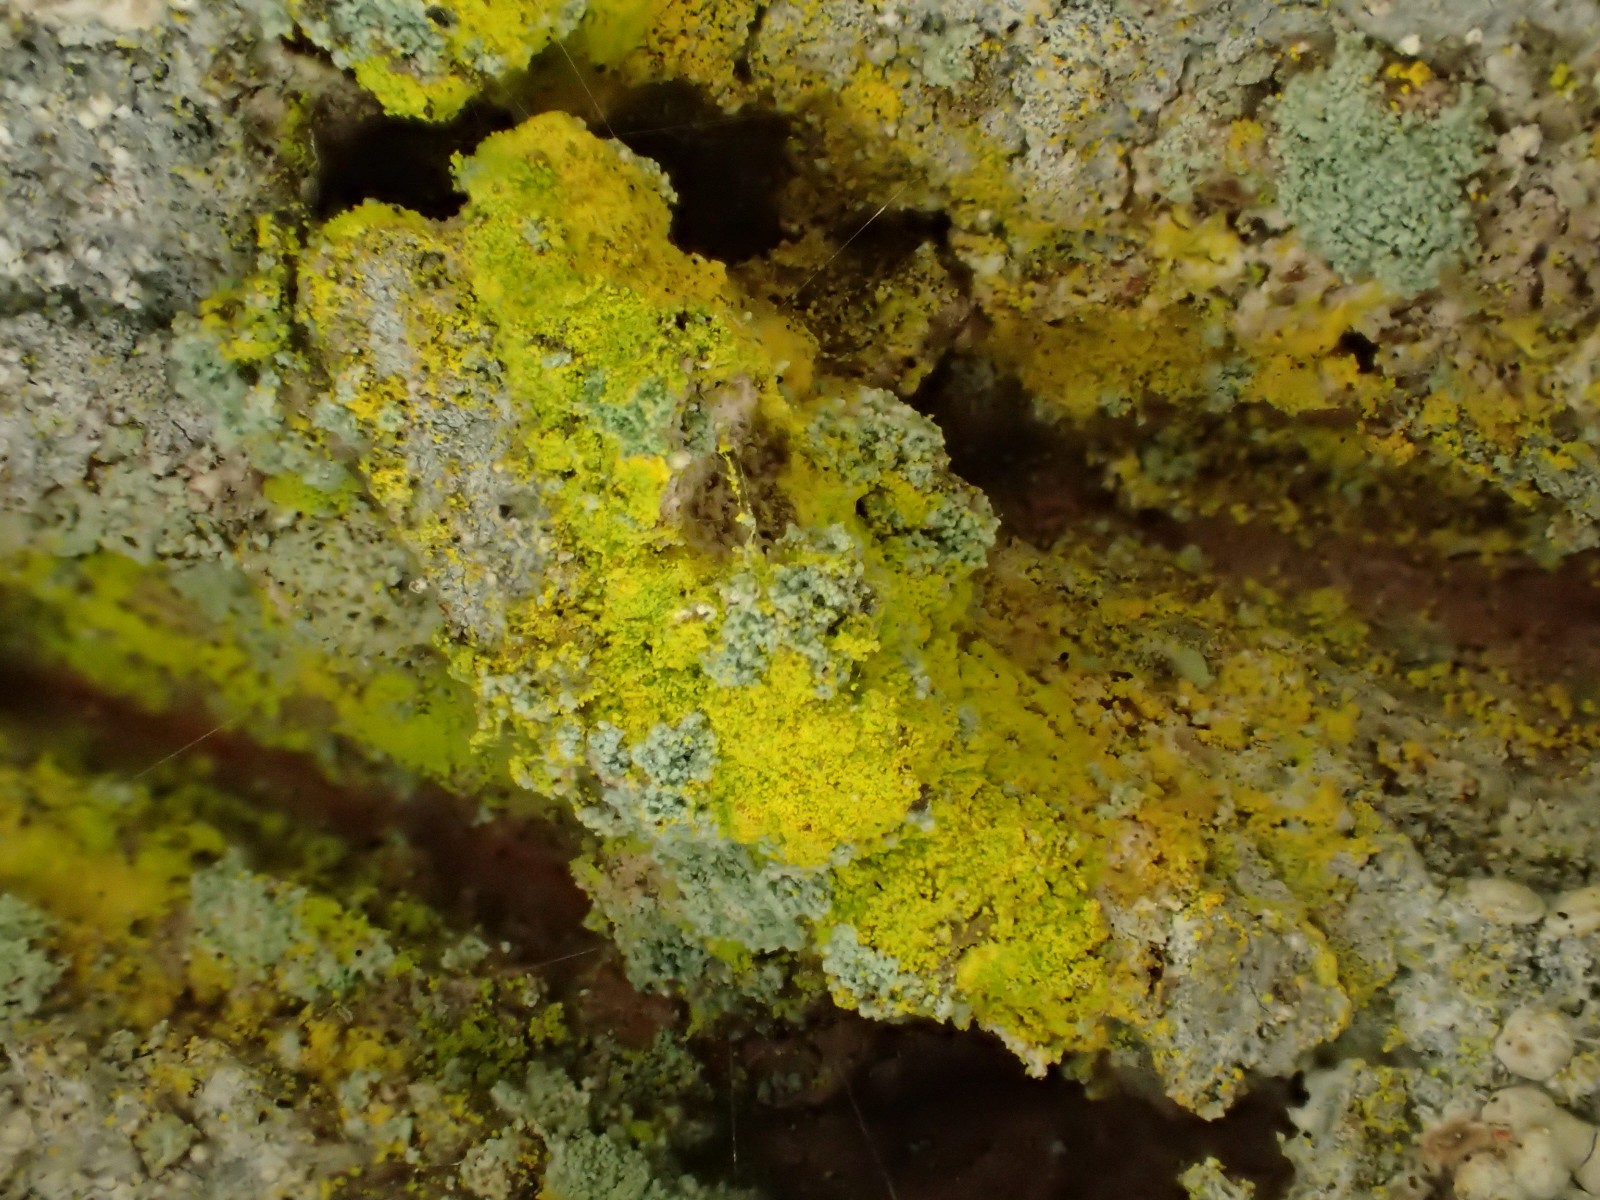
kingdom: Fungi
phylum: Ascomycota
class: Arthoniomycetes
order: Arthoniales
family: Chrysotrichaceae
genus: Chrysothrix
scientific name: Chrysothrix candelaris
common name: gul støvlav
